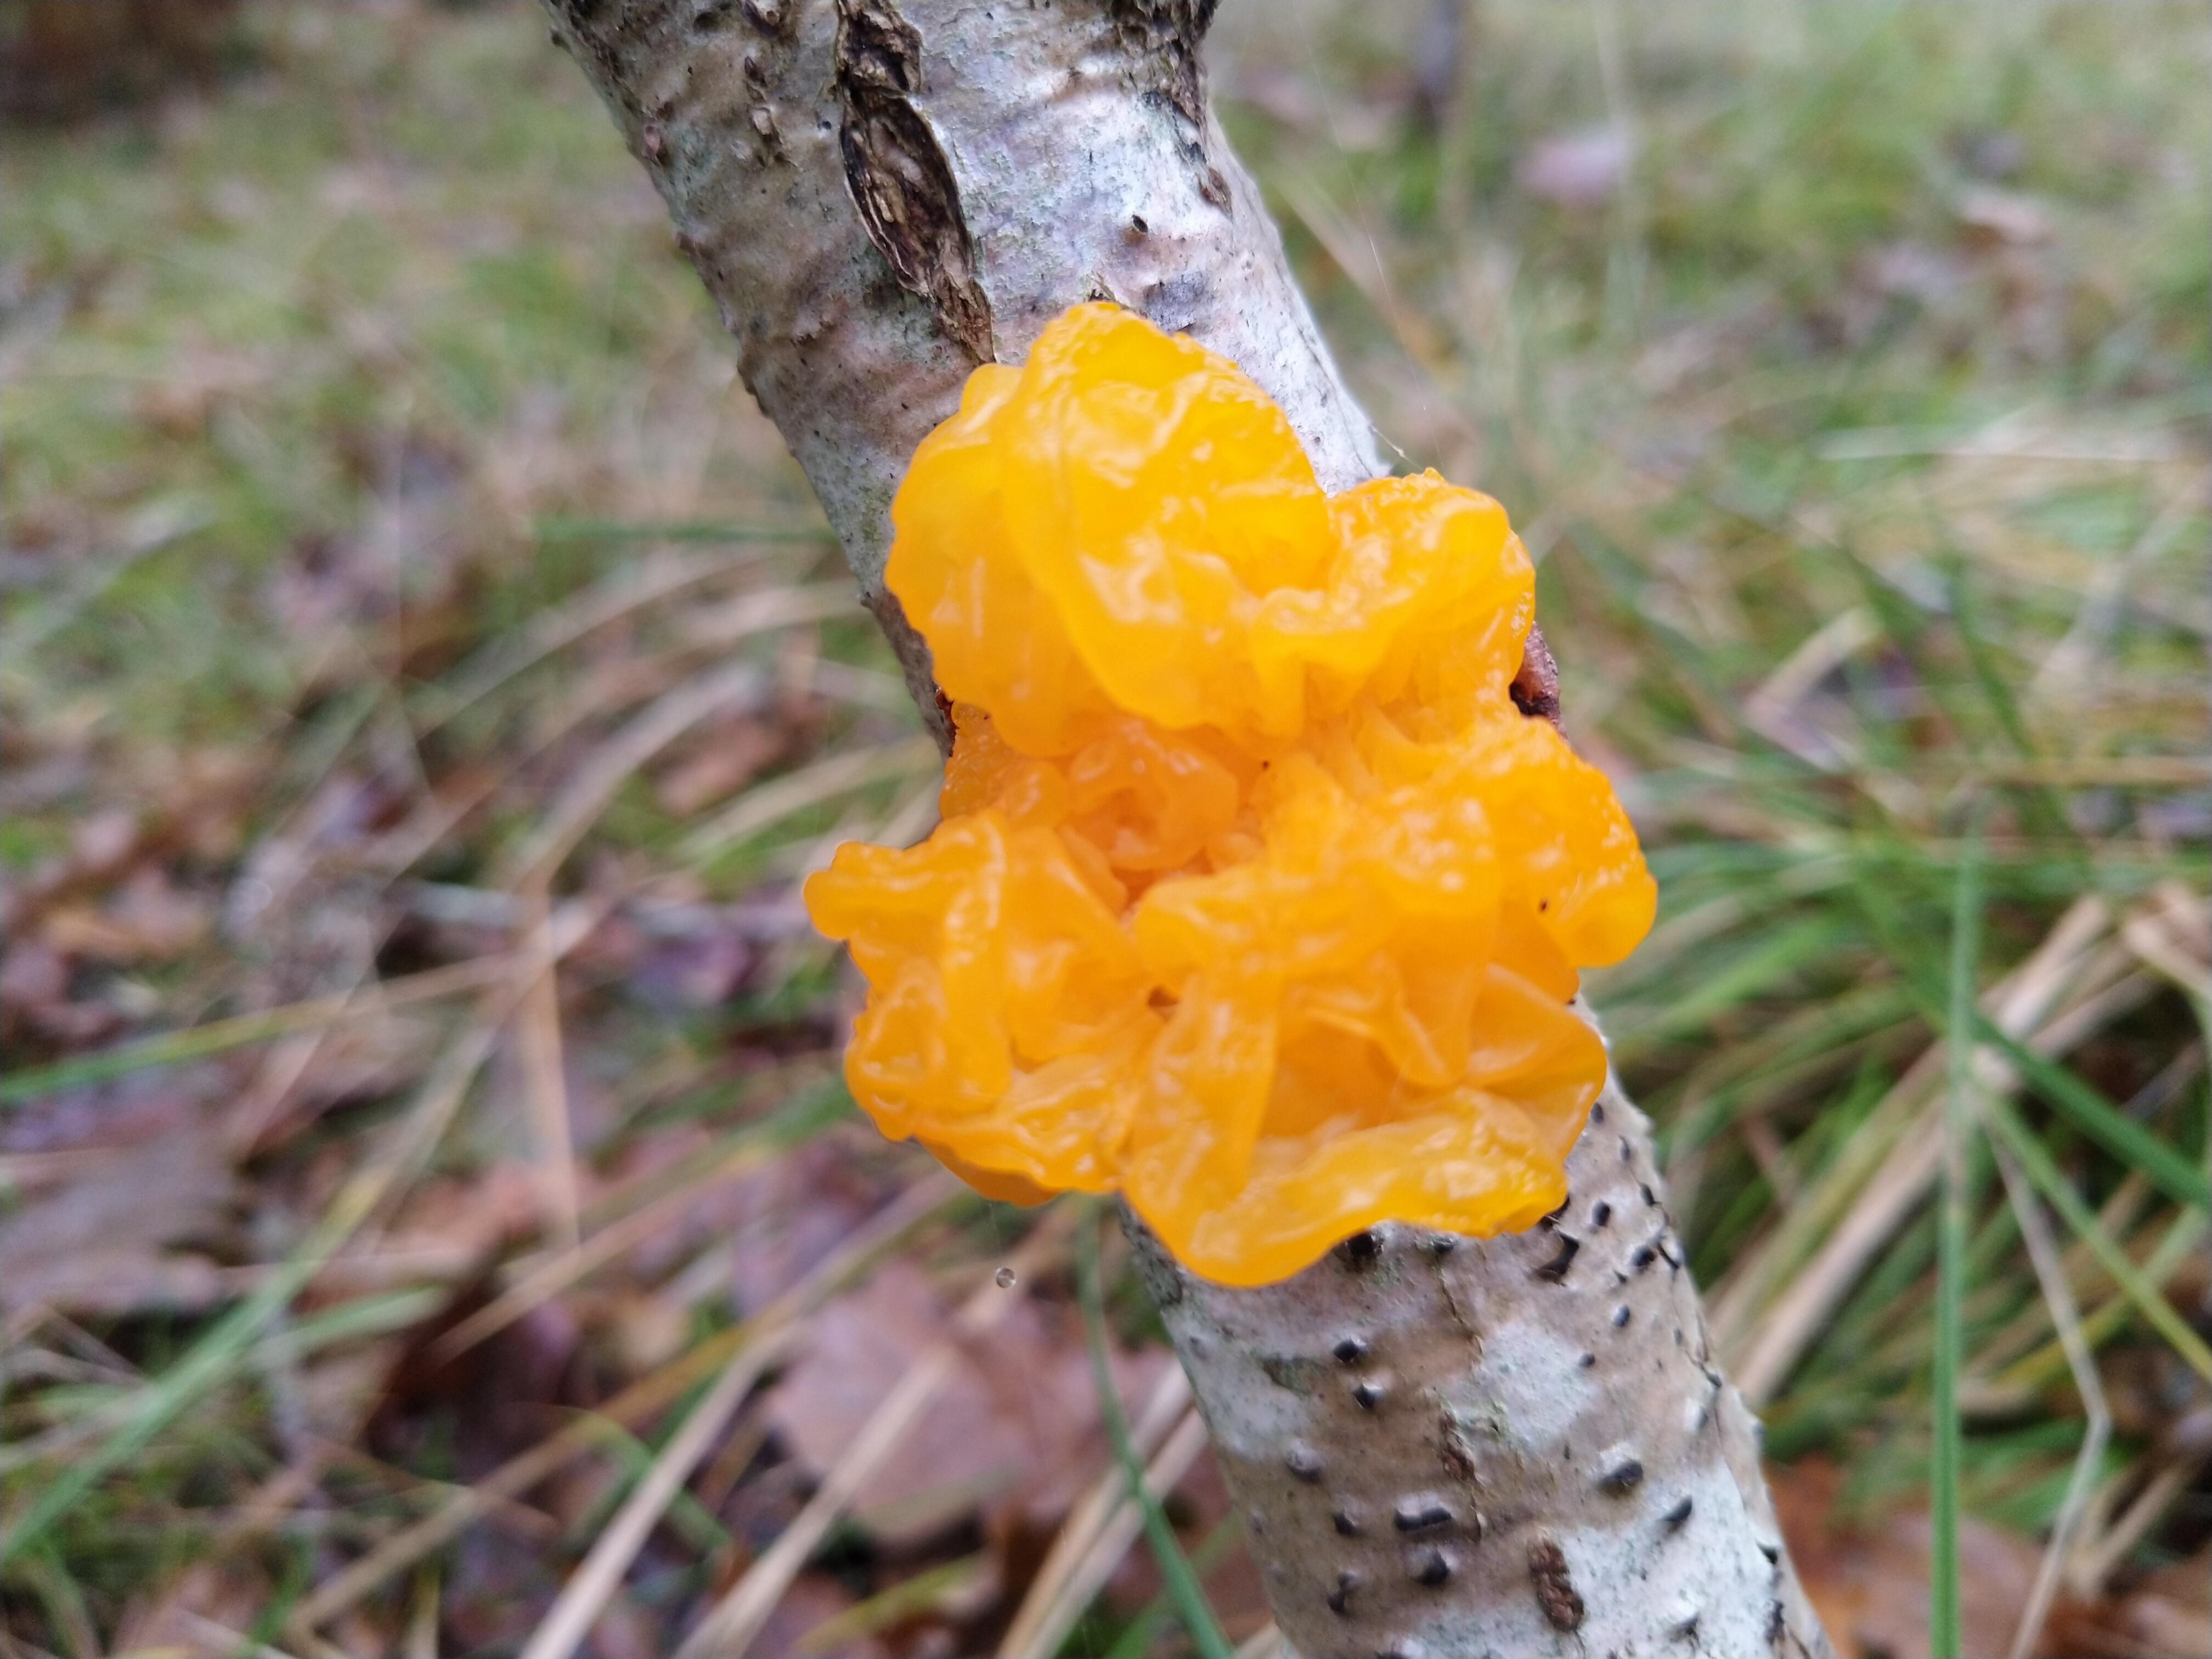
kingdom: Fungi
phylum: Basidiomycota
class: Tremellomycetes
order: Tremellales
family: Tremellaceae
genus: Tremella
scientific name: Tremella mesenterica
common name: gul bævresvamp
